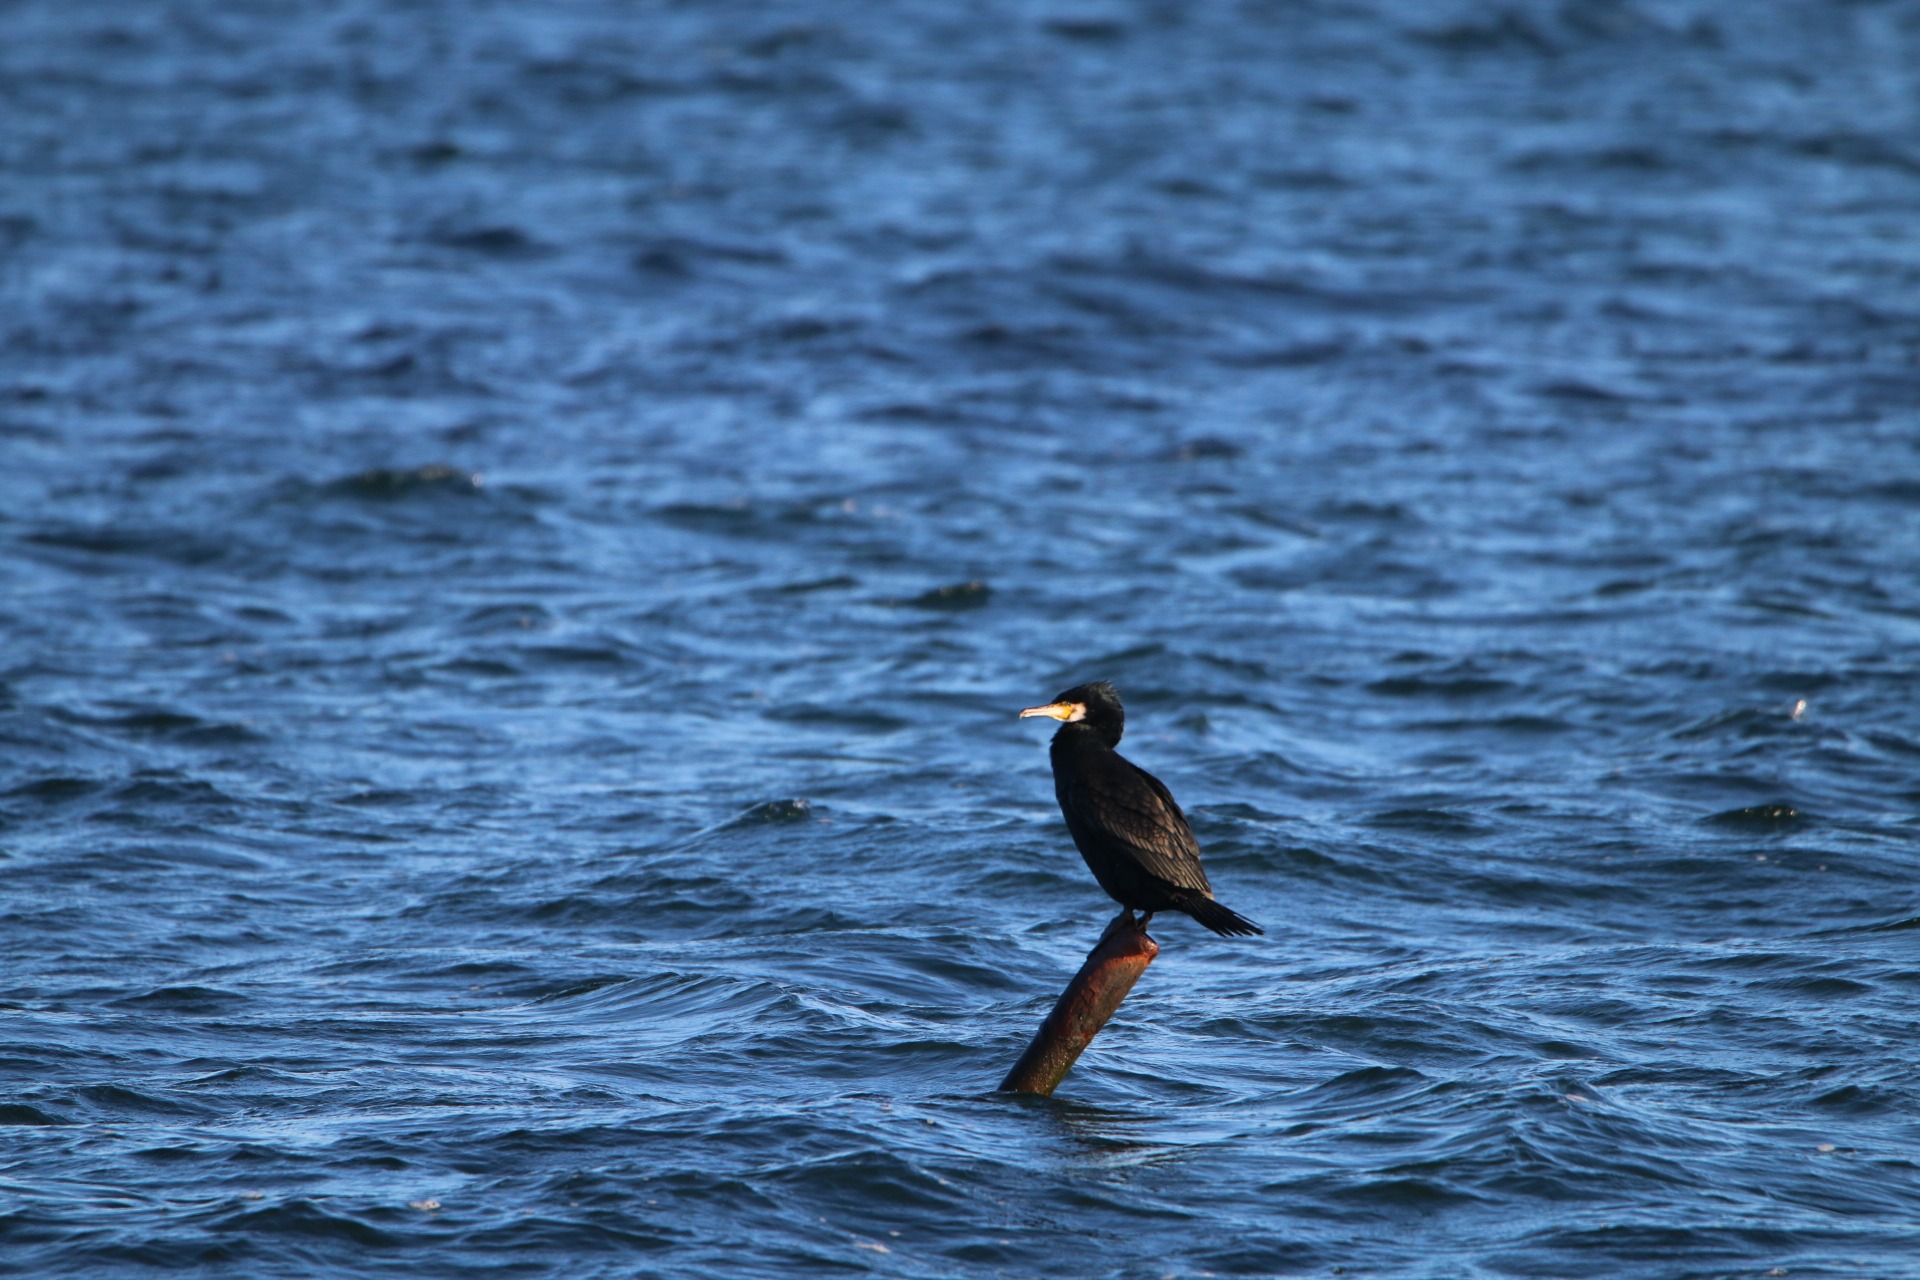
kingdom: Animalia
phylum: Chordata
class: Aves
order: Suliformes
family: Phalacrocoracidae
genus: Phalacrocorax
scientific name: Phalacrocorax carbo
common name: Skarv
